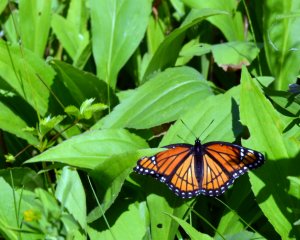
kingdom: Animalia
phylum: Arthropoda
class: Insecta
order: Lepidoptera
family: Nymphalidae
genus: Limenitis
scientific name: Limenitis archippus
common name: Viceroy
